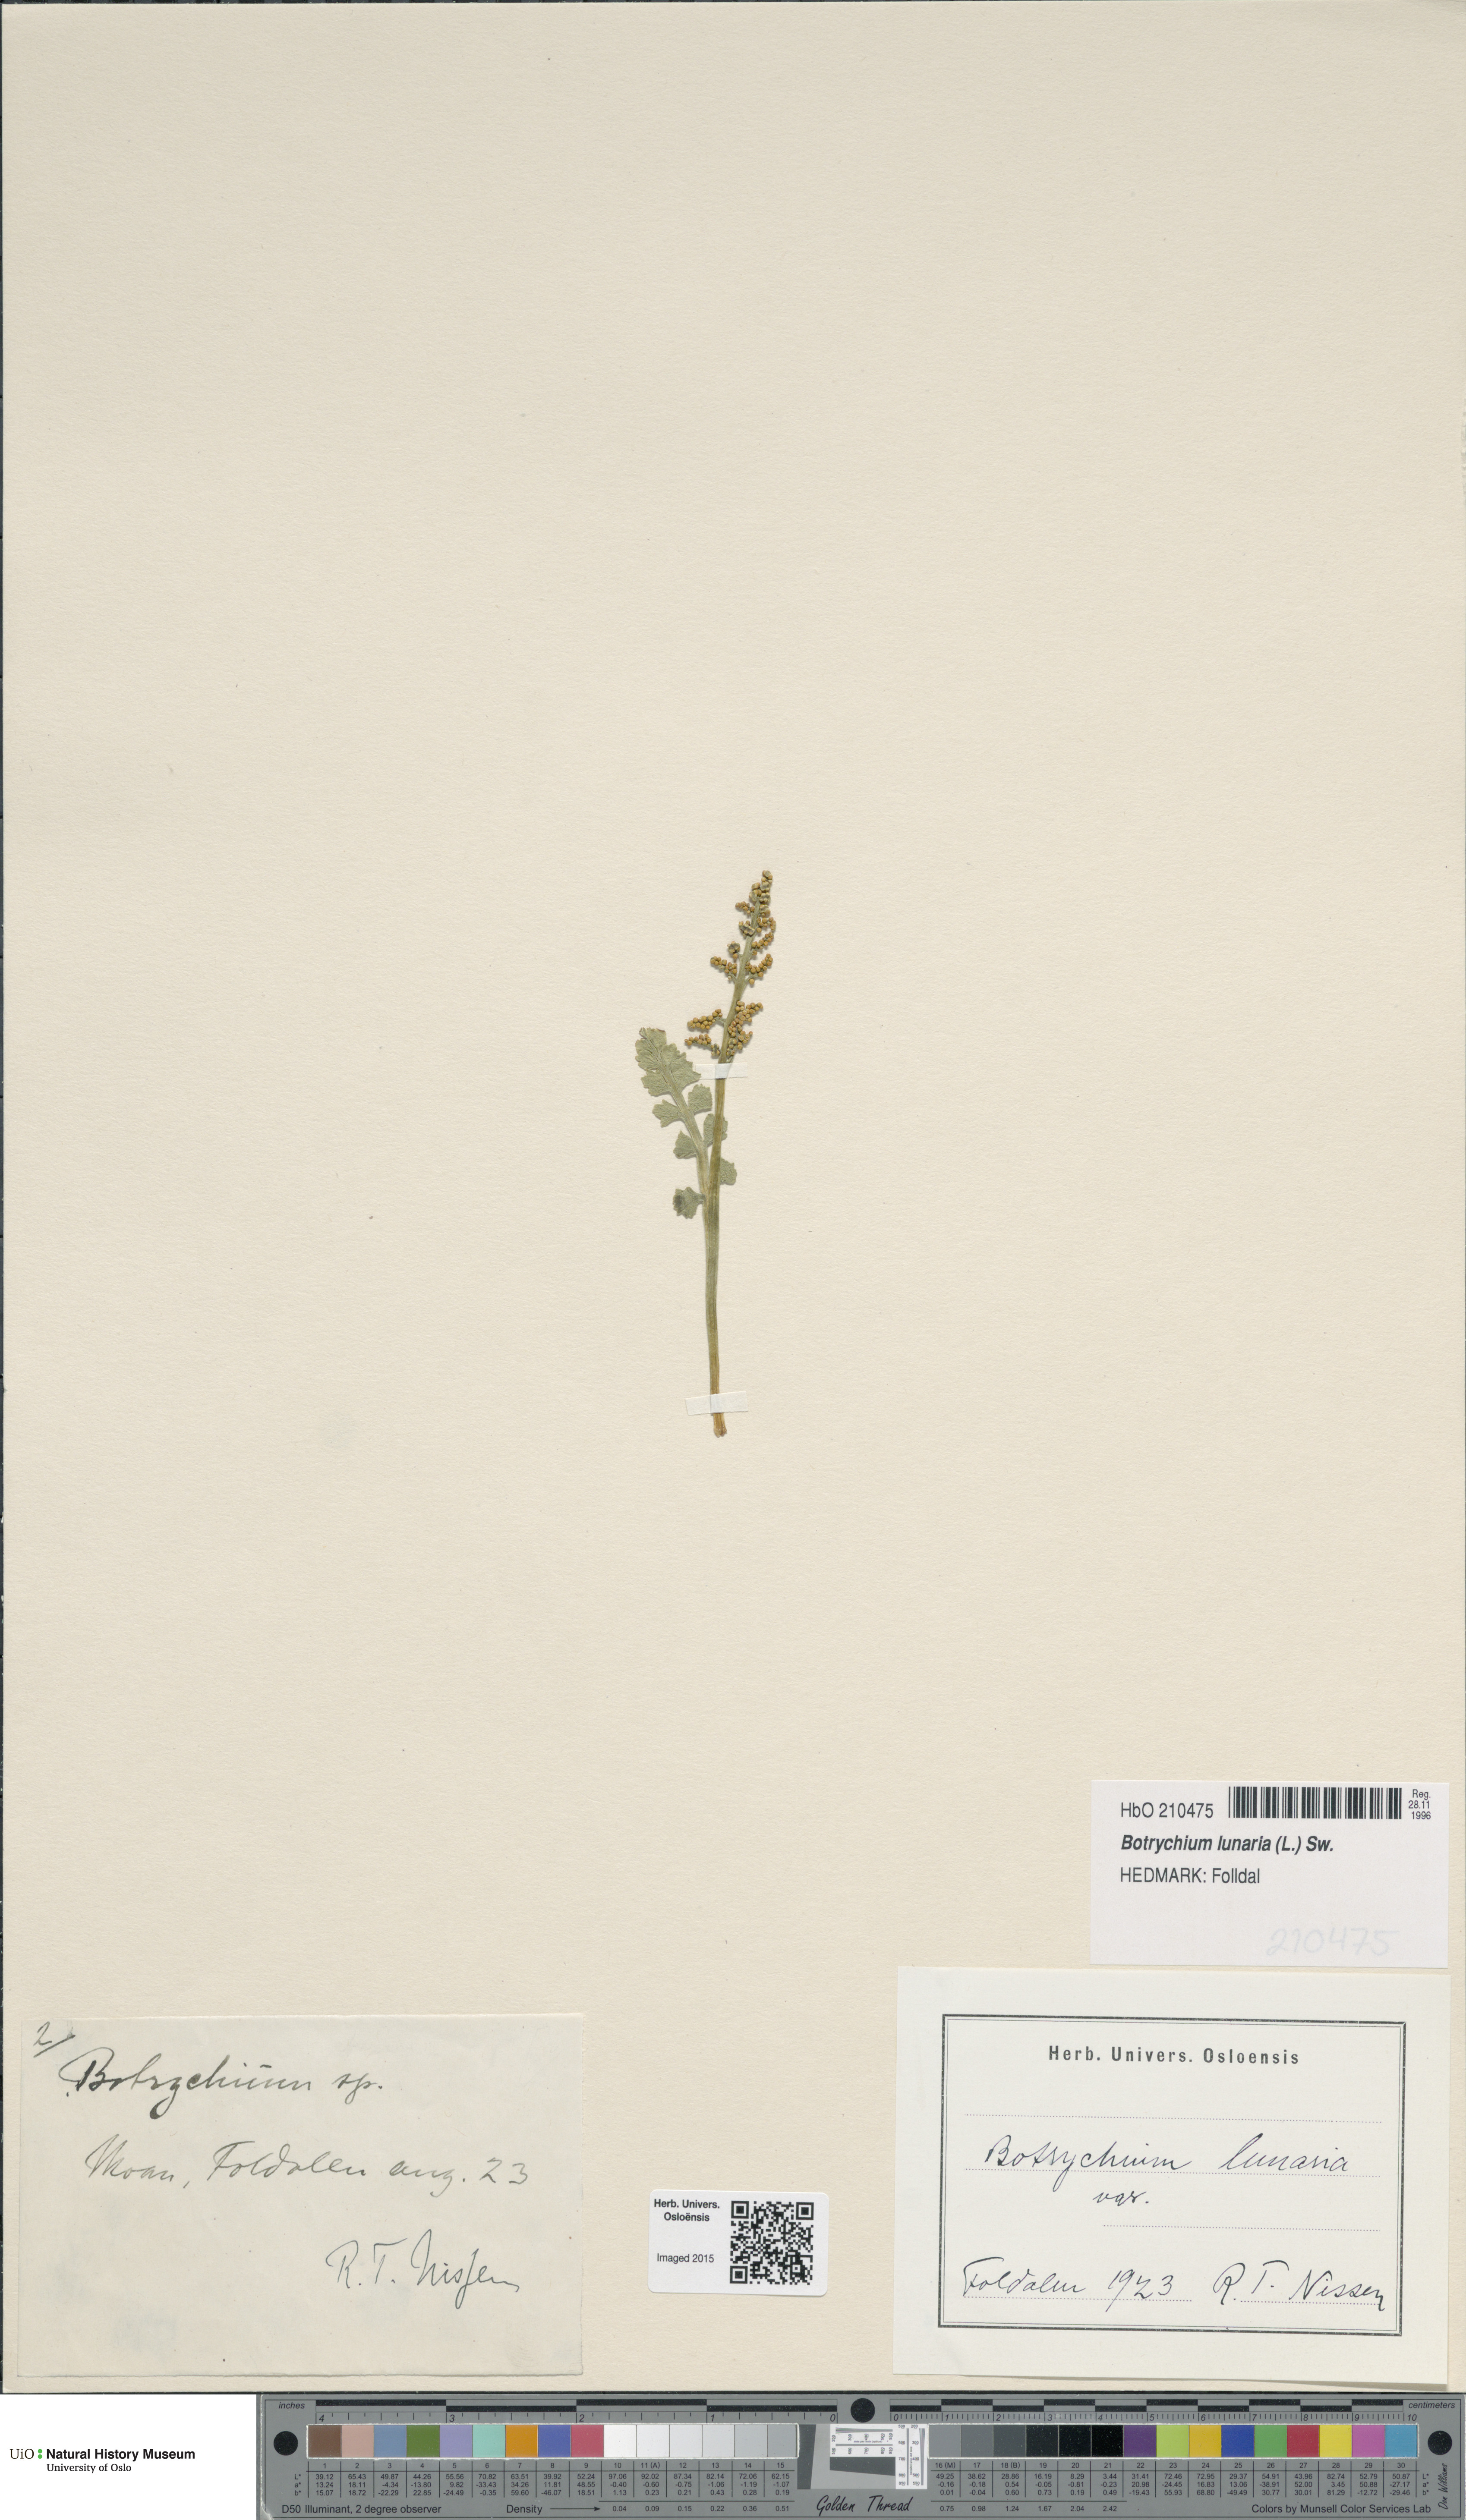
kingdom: Plantae
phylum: Tracheophyta
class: Polypodiopsida
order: Ophioglossales
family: Ophioglossaceae
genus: Botrychium
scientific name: Botrychium lunaria
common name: Moonwort
